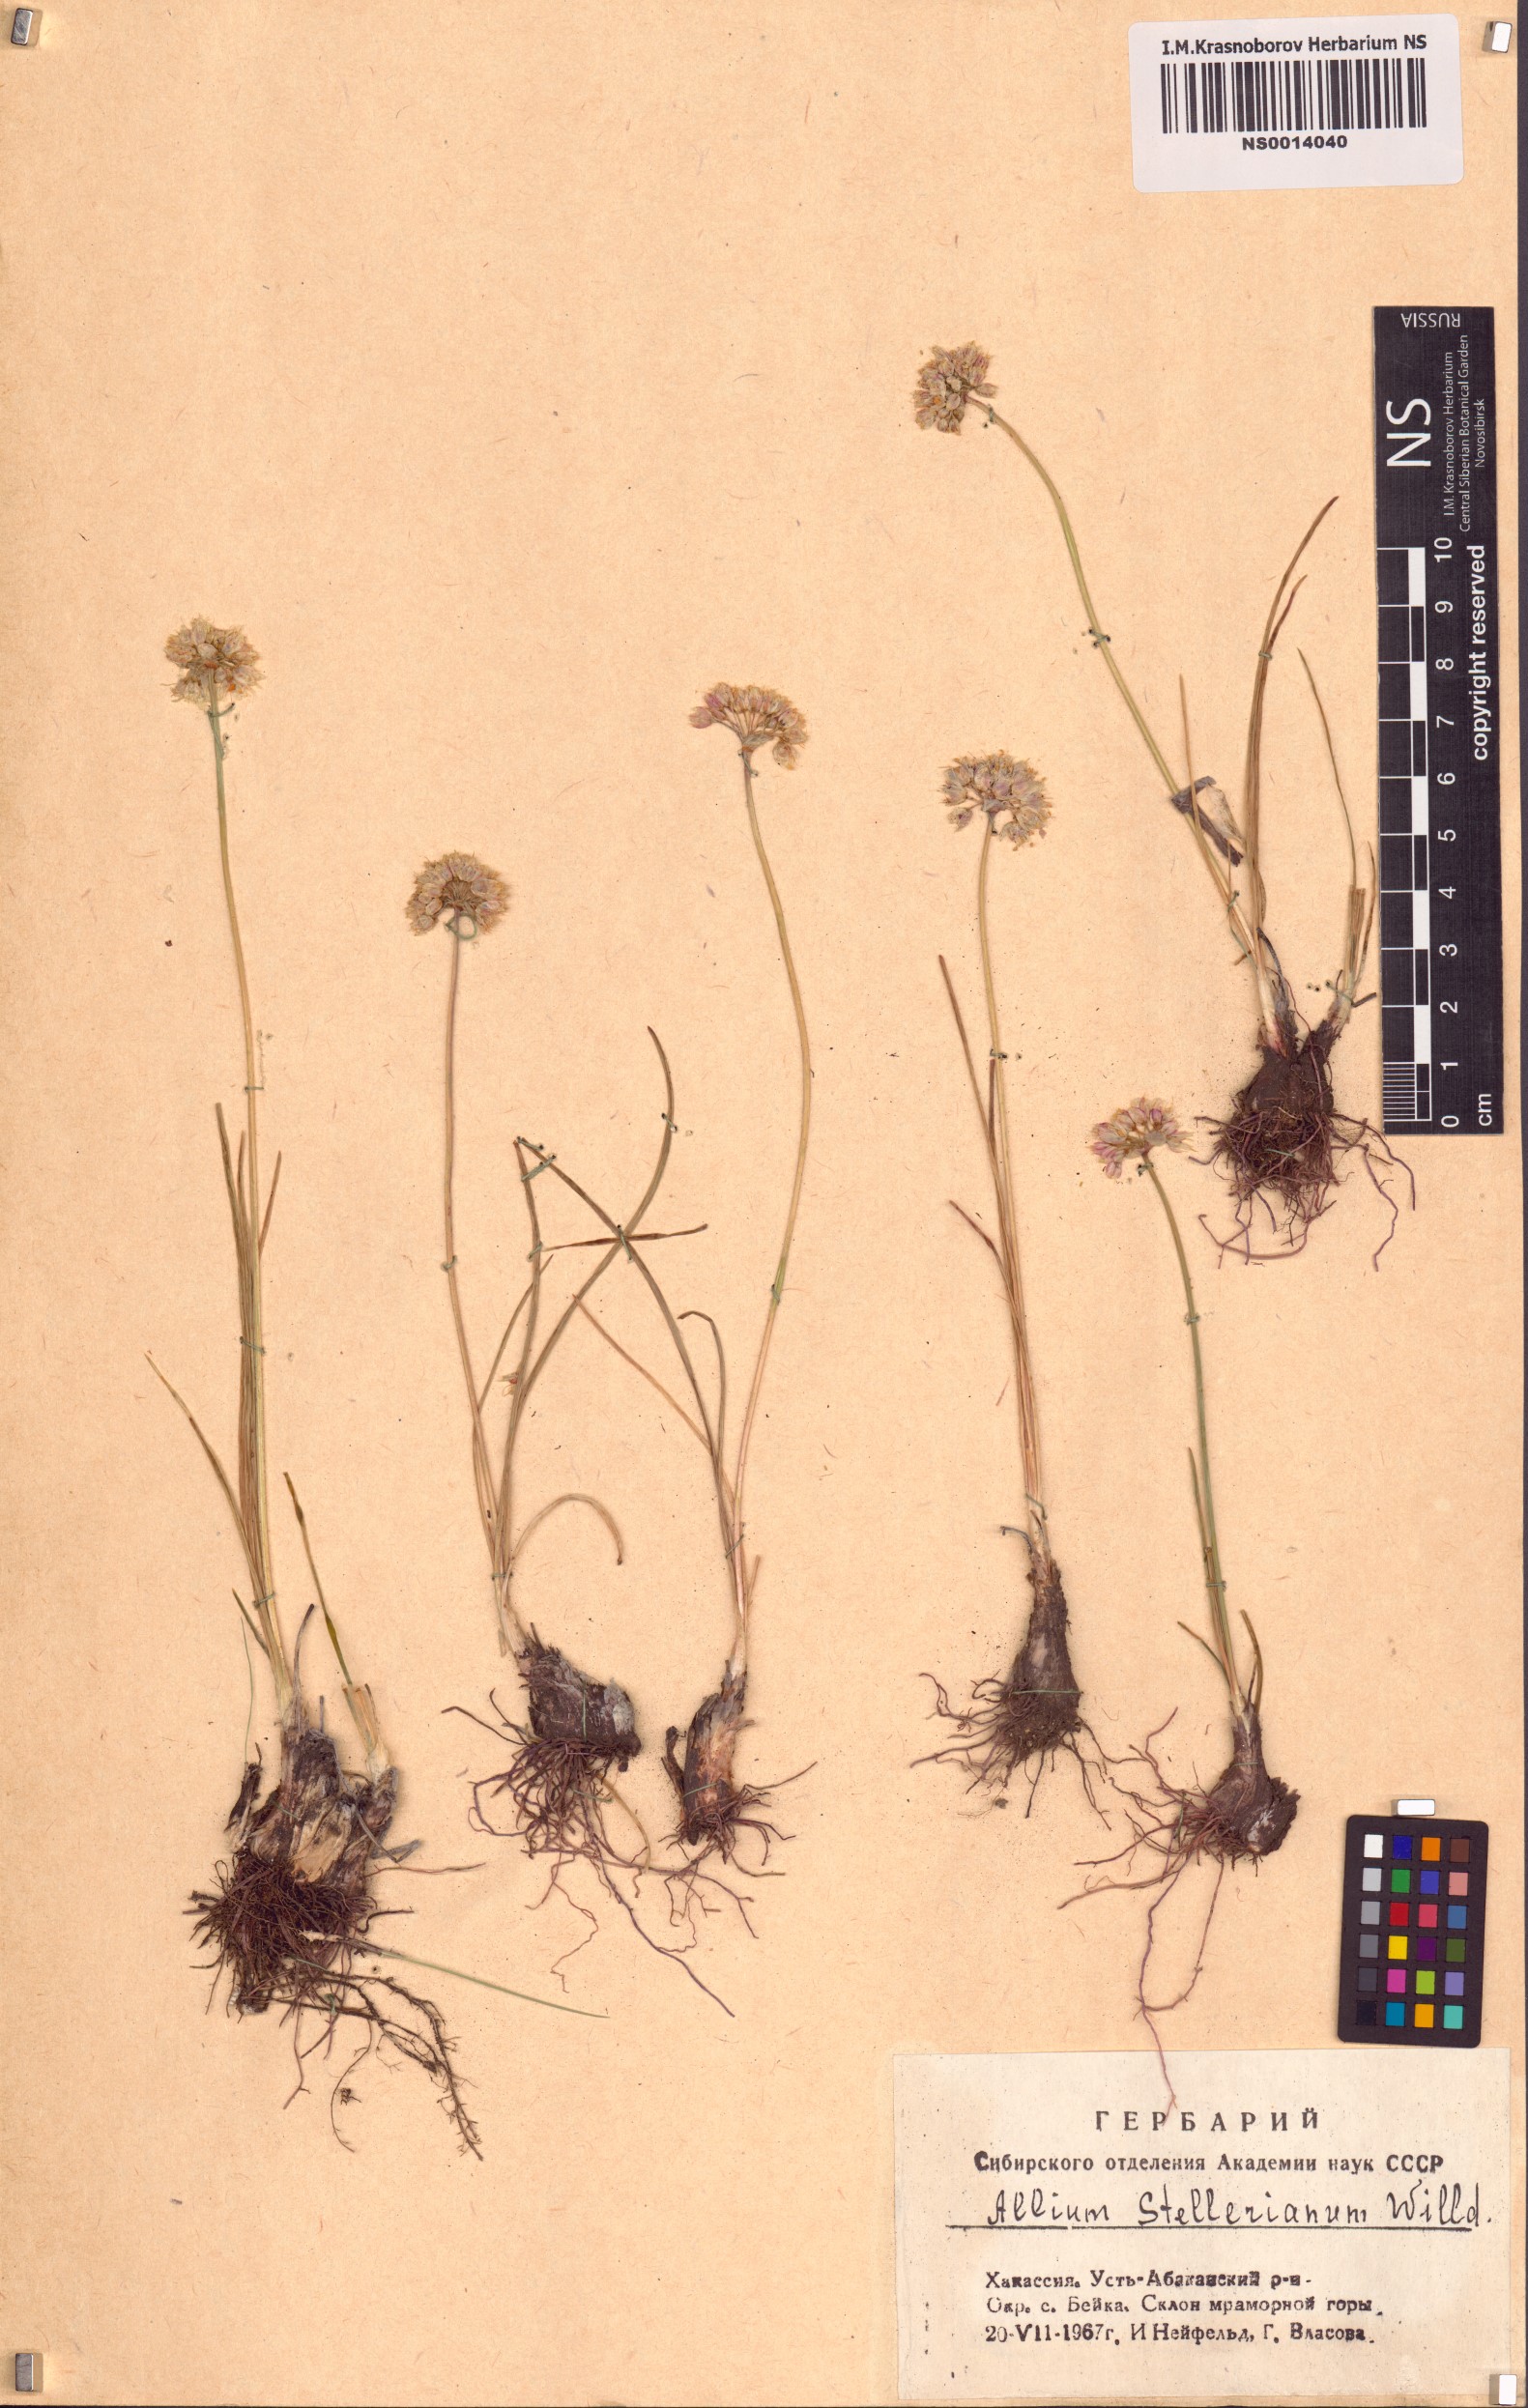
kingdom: Plantae
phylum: Tracheophyta
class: Liliopsida
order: Asparagales
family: Amaryllidaceae
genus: Allium
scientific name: Allium stellerianum
